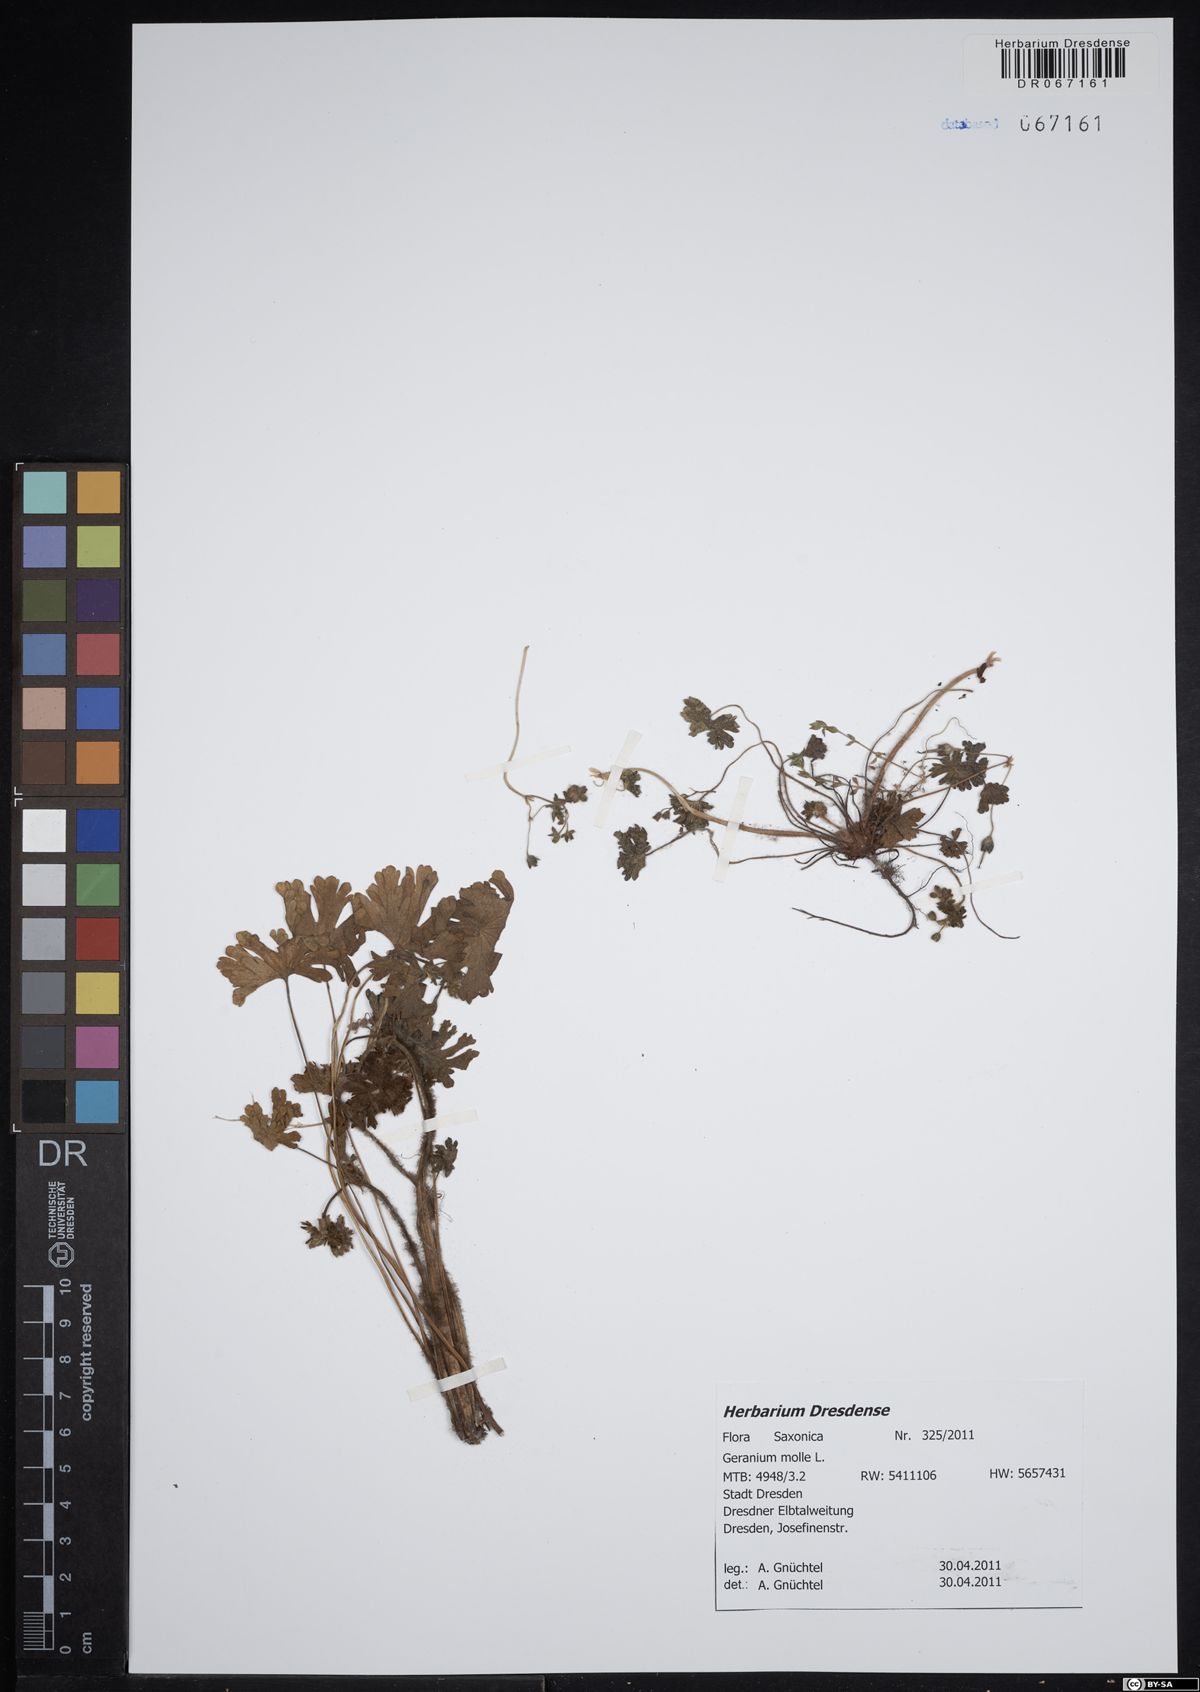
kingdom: Plantae
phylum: Tracheophyta
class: Magnoliopsida
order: Geraniales
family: Geraniaceae
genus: Geranium
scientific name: Geranium molle
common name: Dove's-foot crane's-bill
